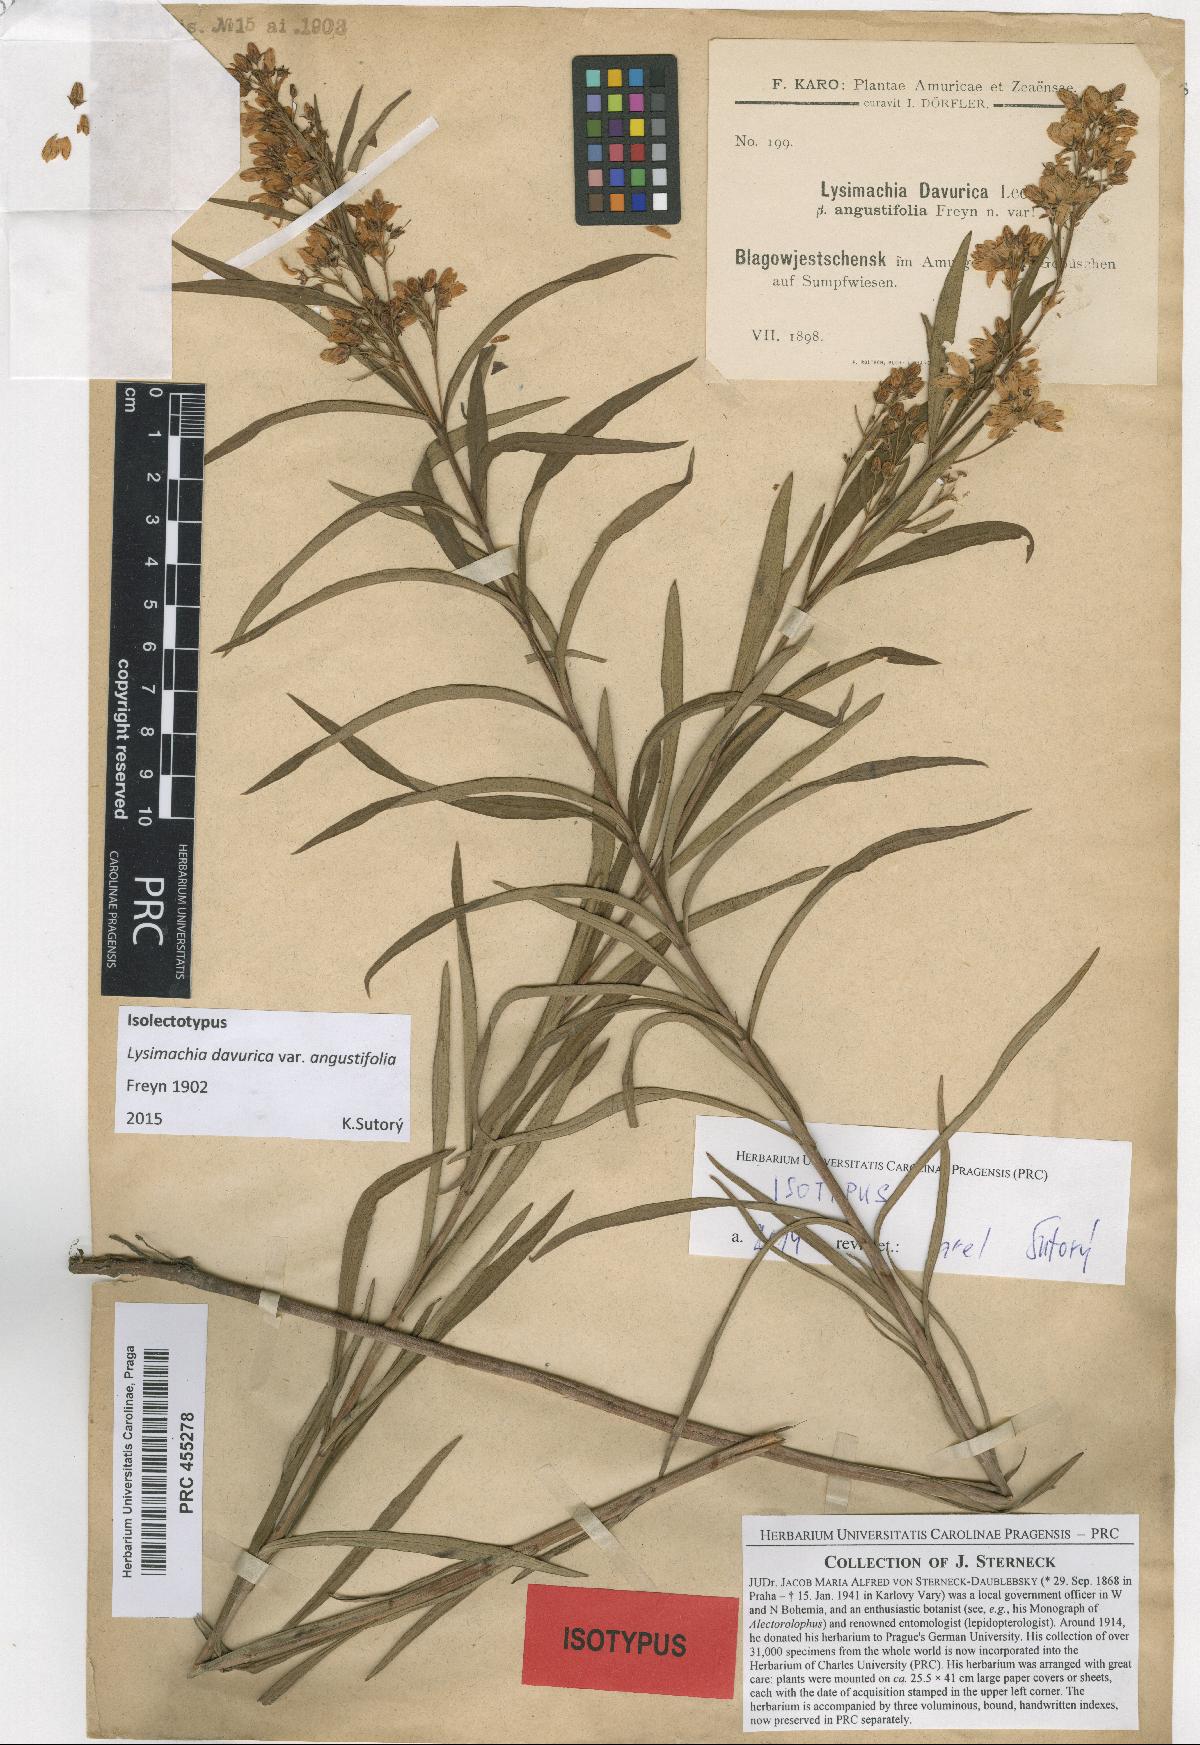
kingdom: Plantae
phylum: Tracheophyta
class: Magnoliopsida
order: Ericales
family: Primulaceae
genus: Lysimachia
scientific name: Lysimachia davurica
